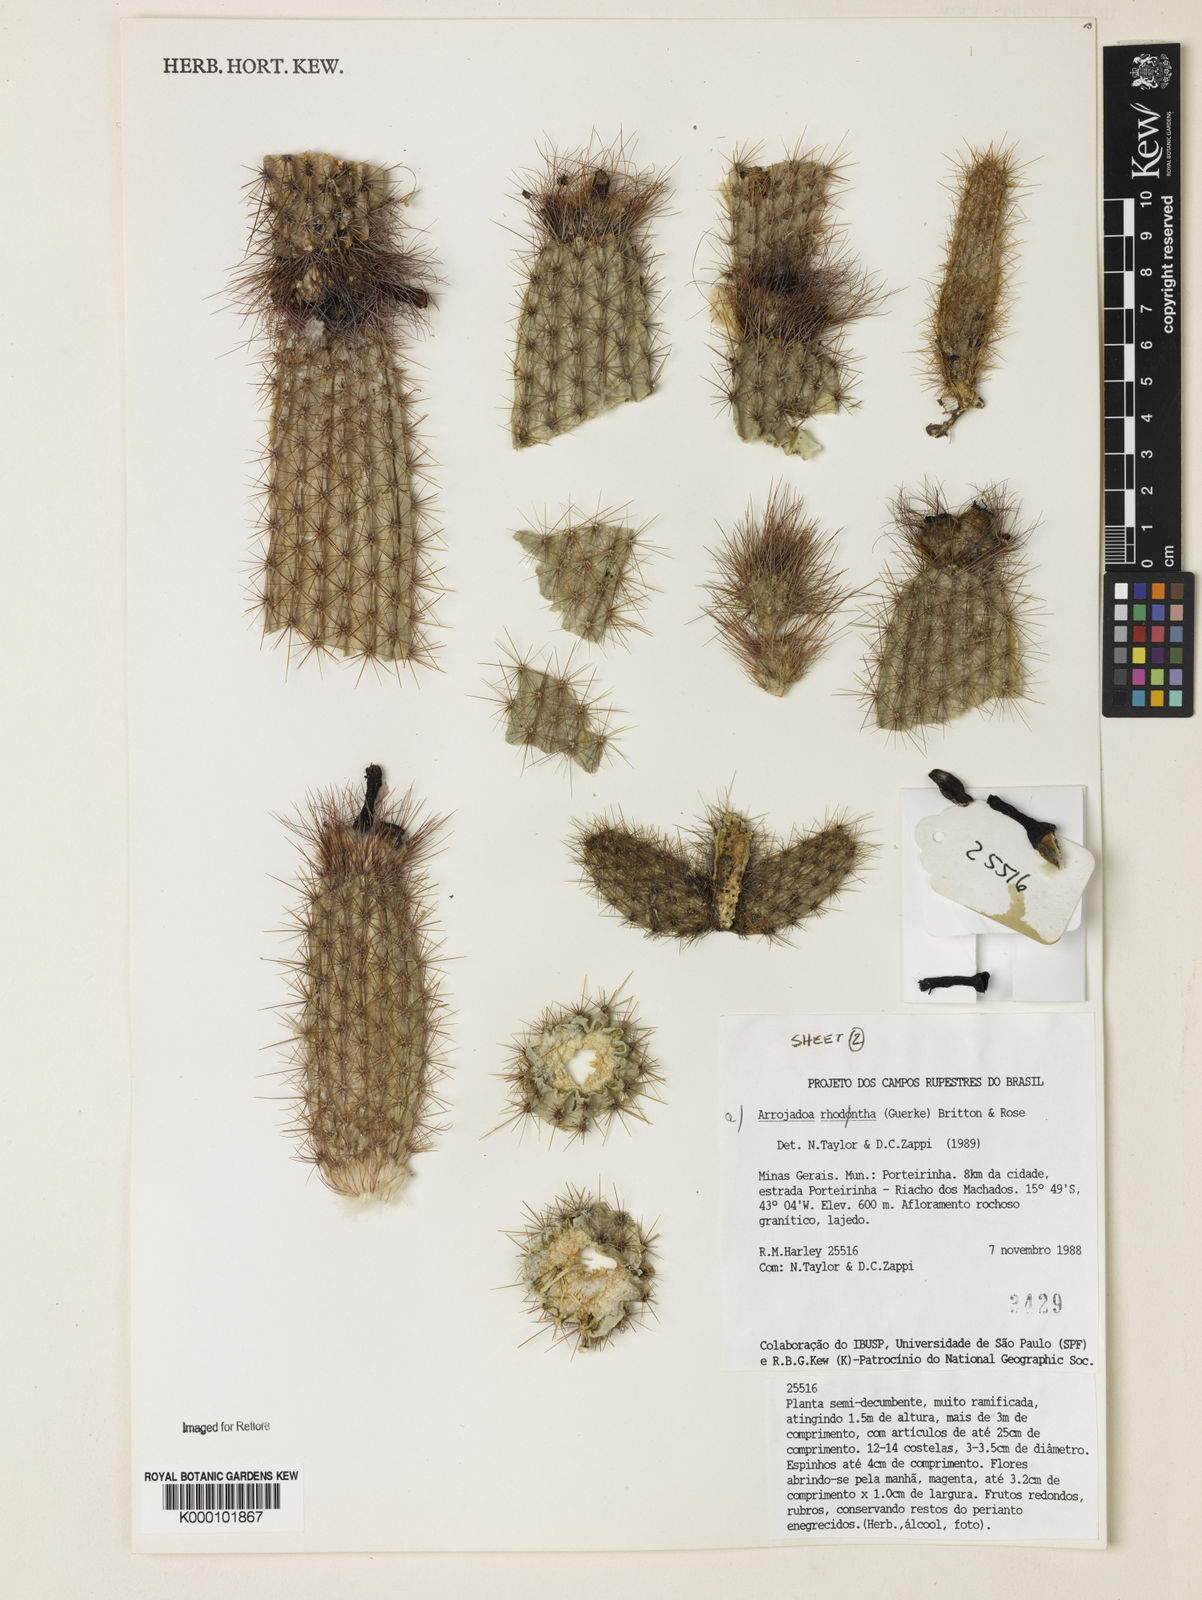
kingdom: Plantae
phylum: Tracheophyta
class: Magnoliopsida
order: Caryophyllales
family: Cactaceae
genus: Arrojadoa
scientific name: Arrojadoa
